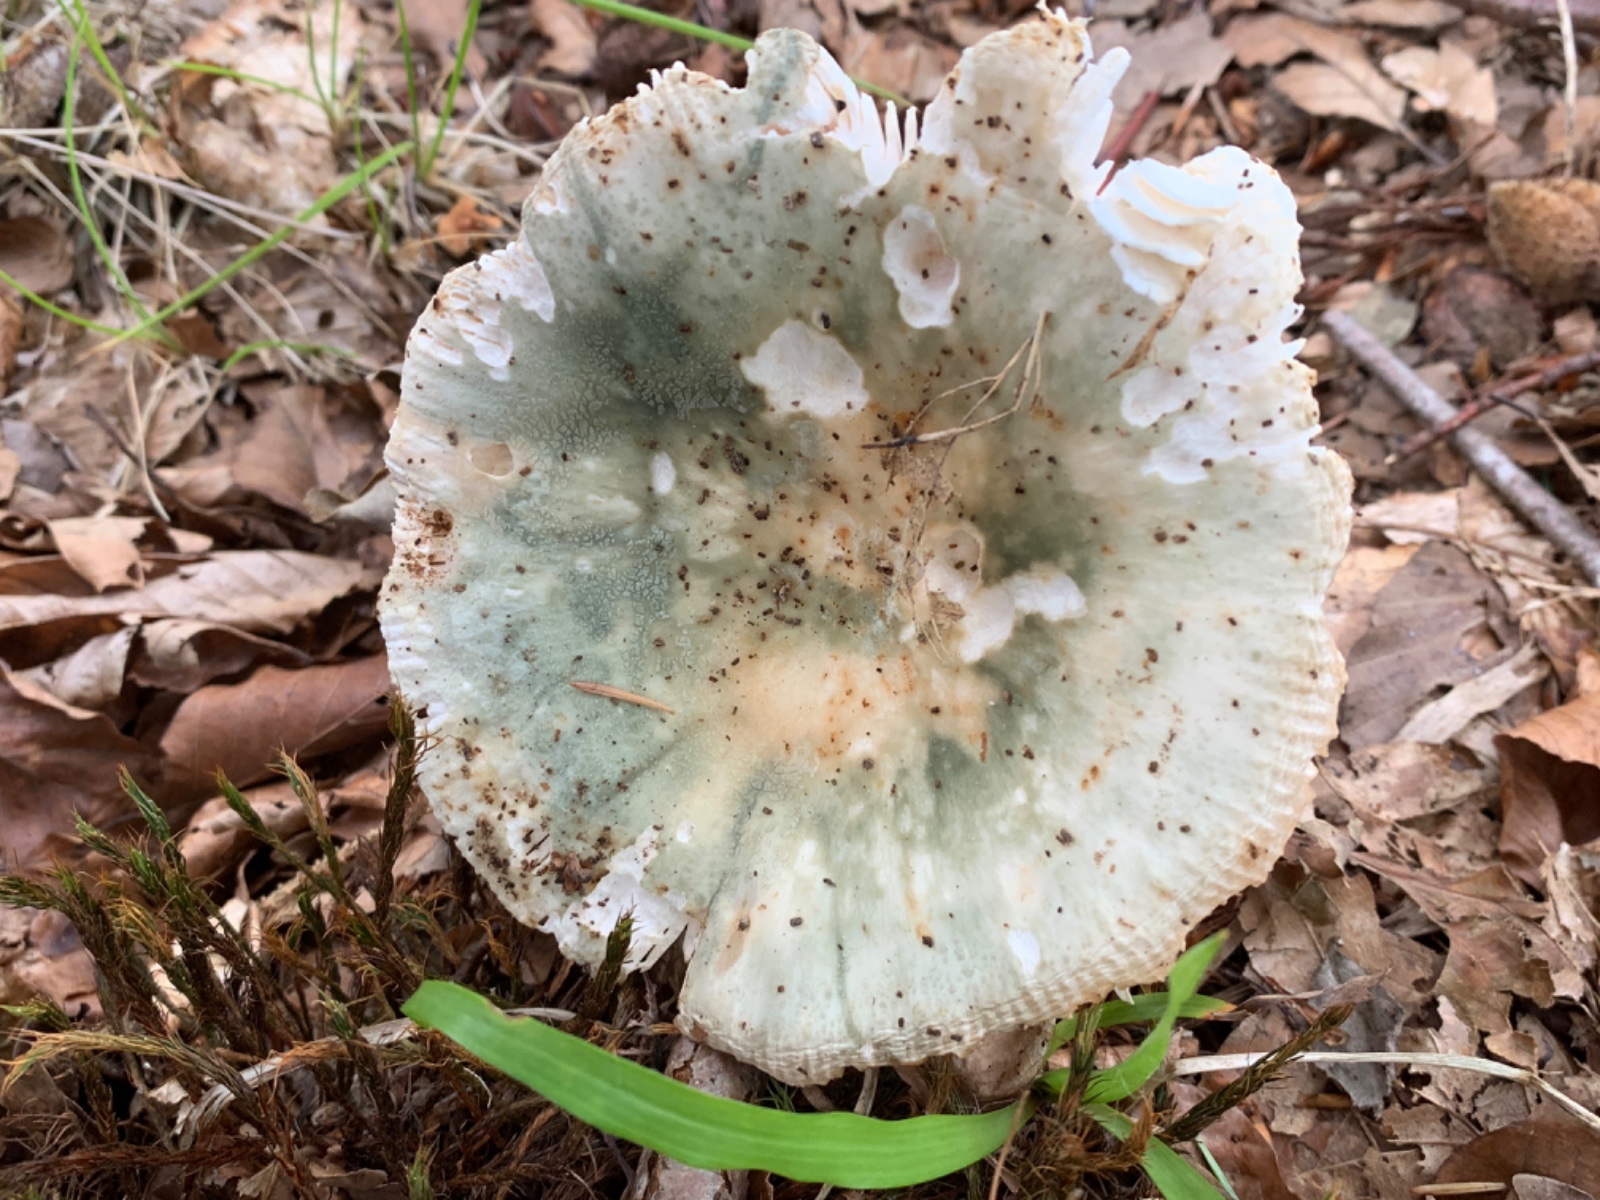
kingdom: Fungi
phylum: Basidiomycota
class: Agaricomycetes
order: Russulales
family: Russulaceae
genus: Russula
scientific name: Russula virescens
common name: spanskgrøn skørhat
